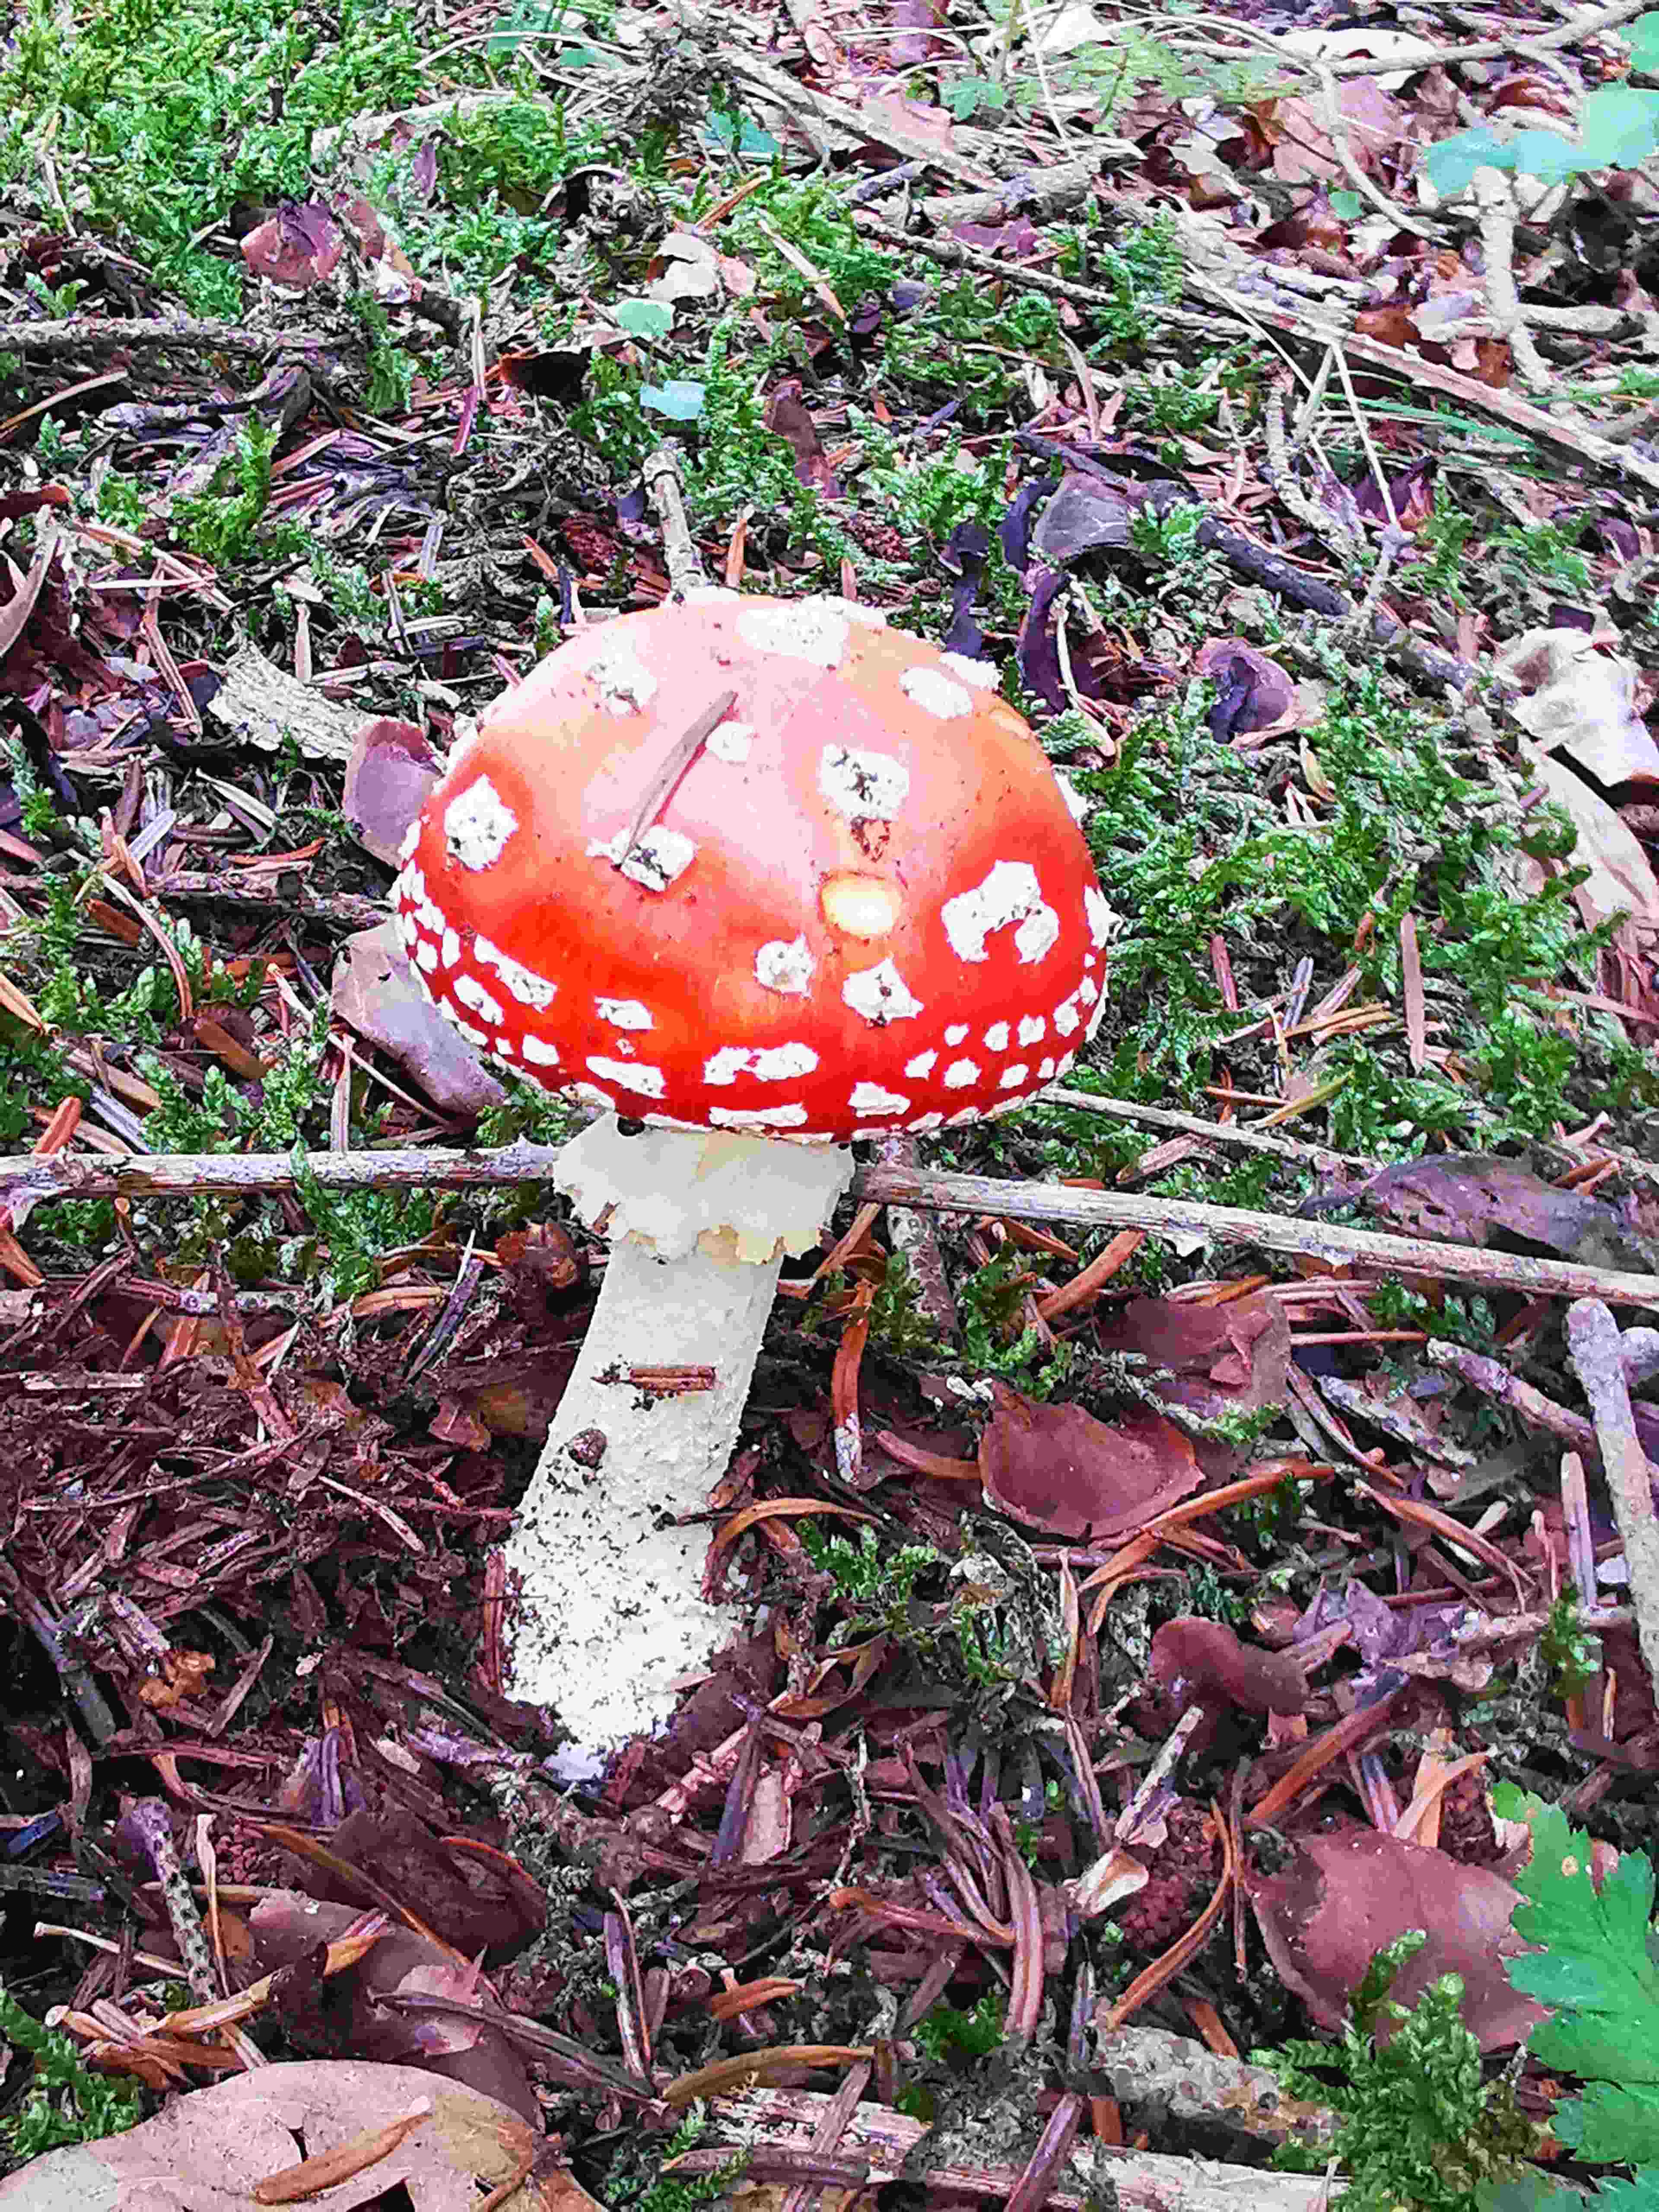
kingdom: Fungi
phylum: Basidiomycota
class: Agaricomycetes
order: Agaricales
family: Amanitaceae
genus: Amanita
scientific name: Amanita muscaria
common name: rød fluesvamp
